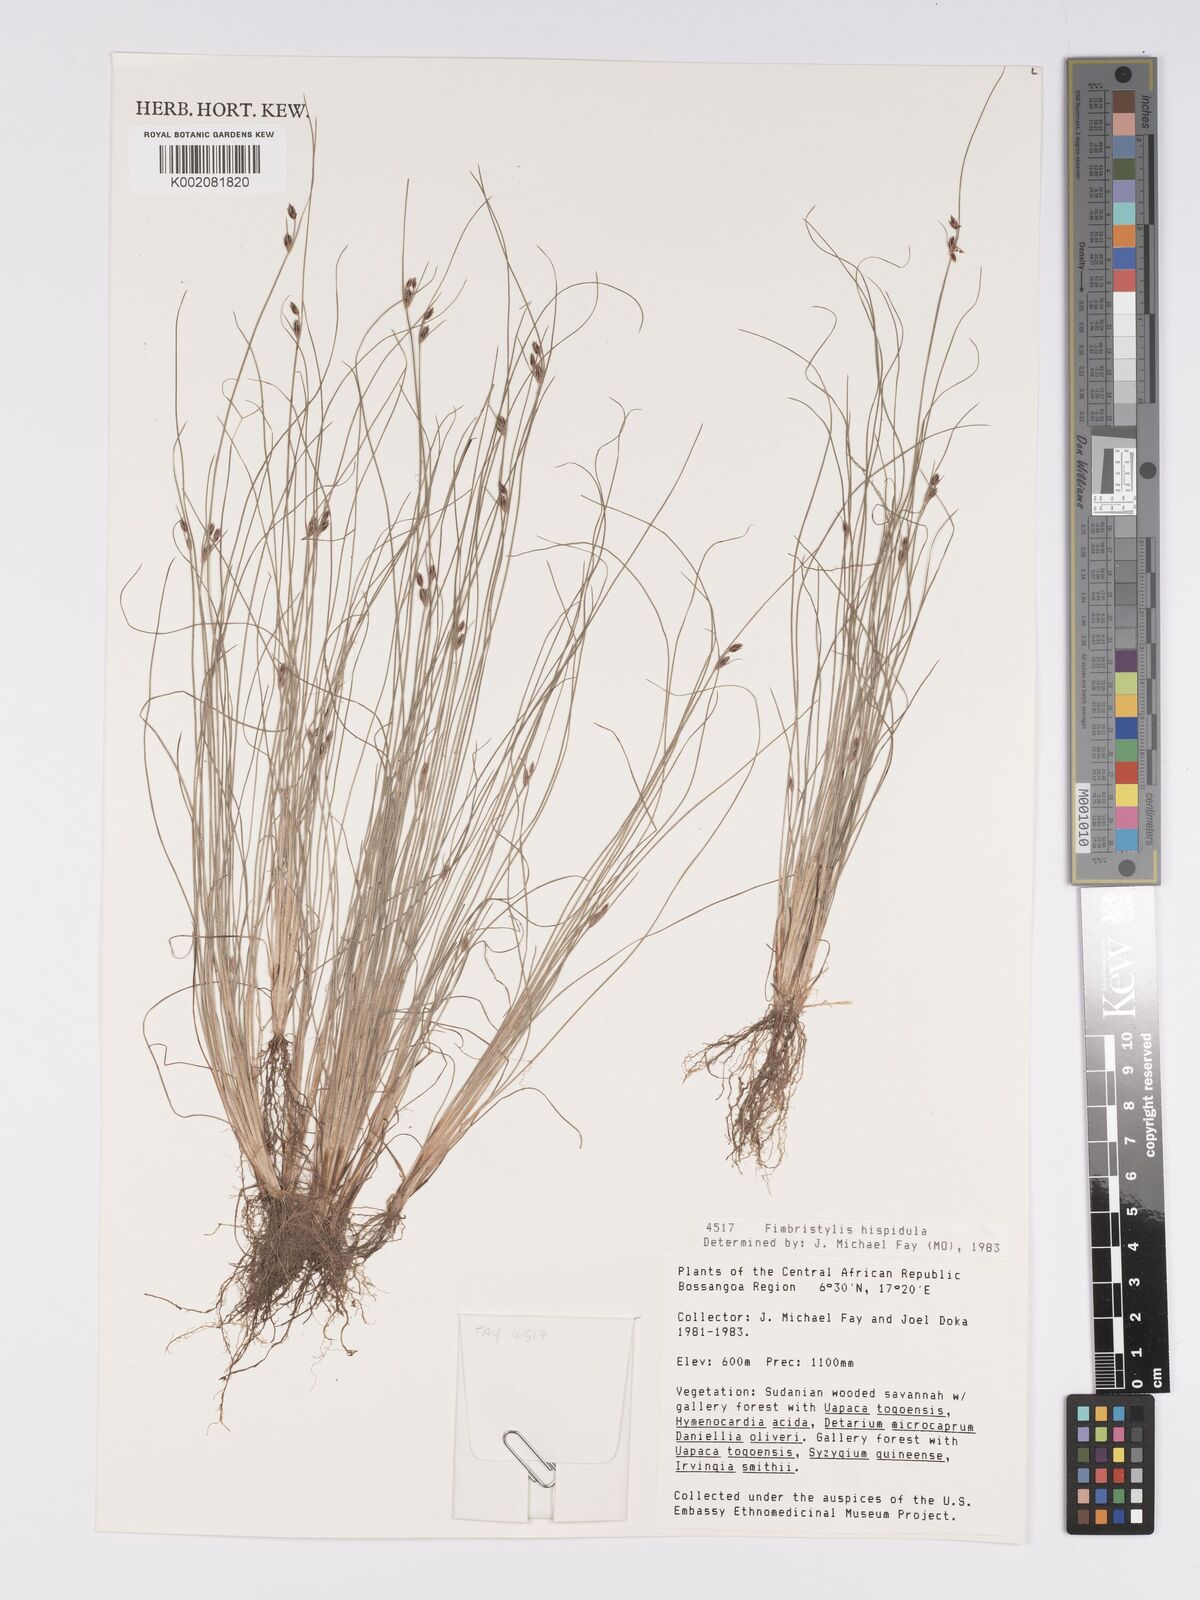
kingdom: Plantae
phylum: Tracheophyta
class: Liliopsida
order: Poales
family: Cyperaceae
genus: Bulbostylis
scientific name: Bulbostylis hispidula
